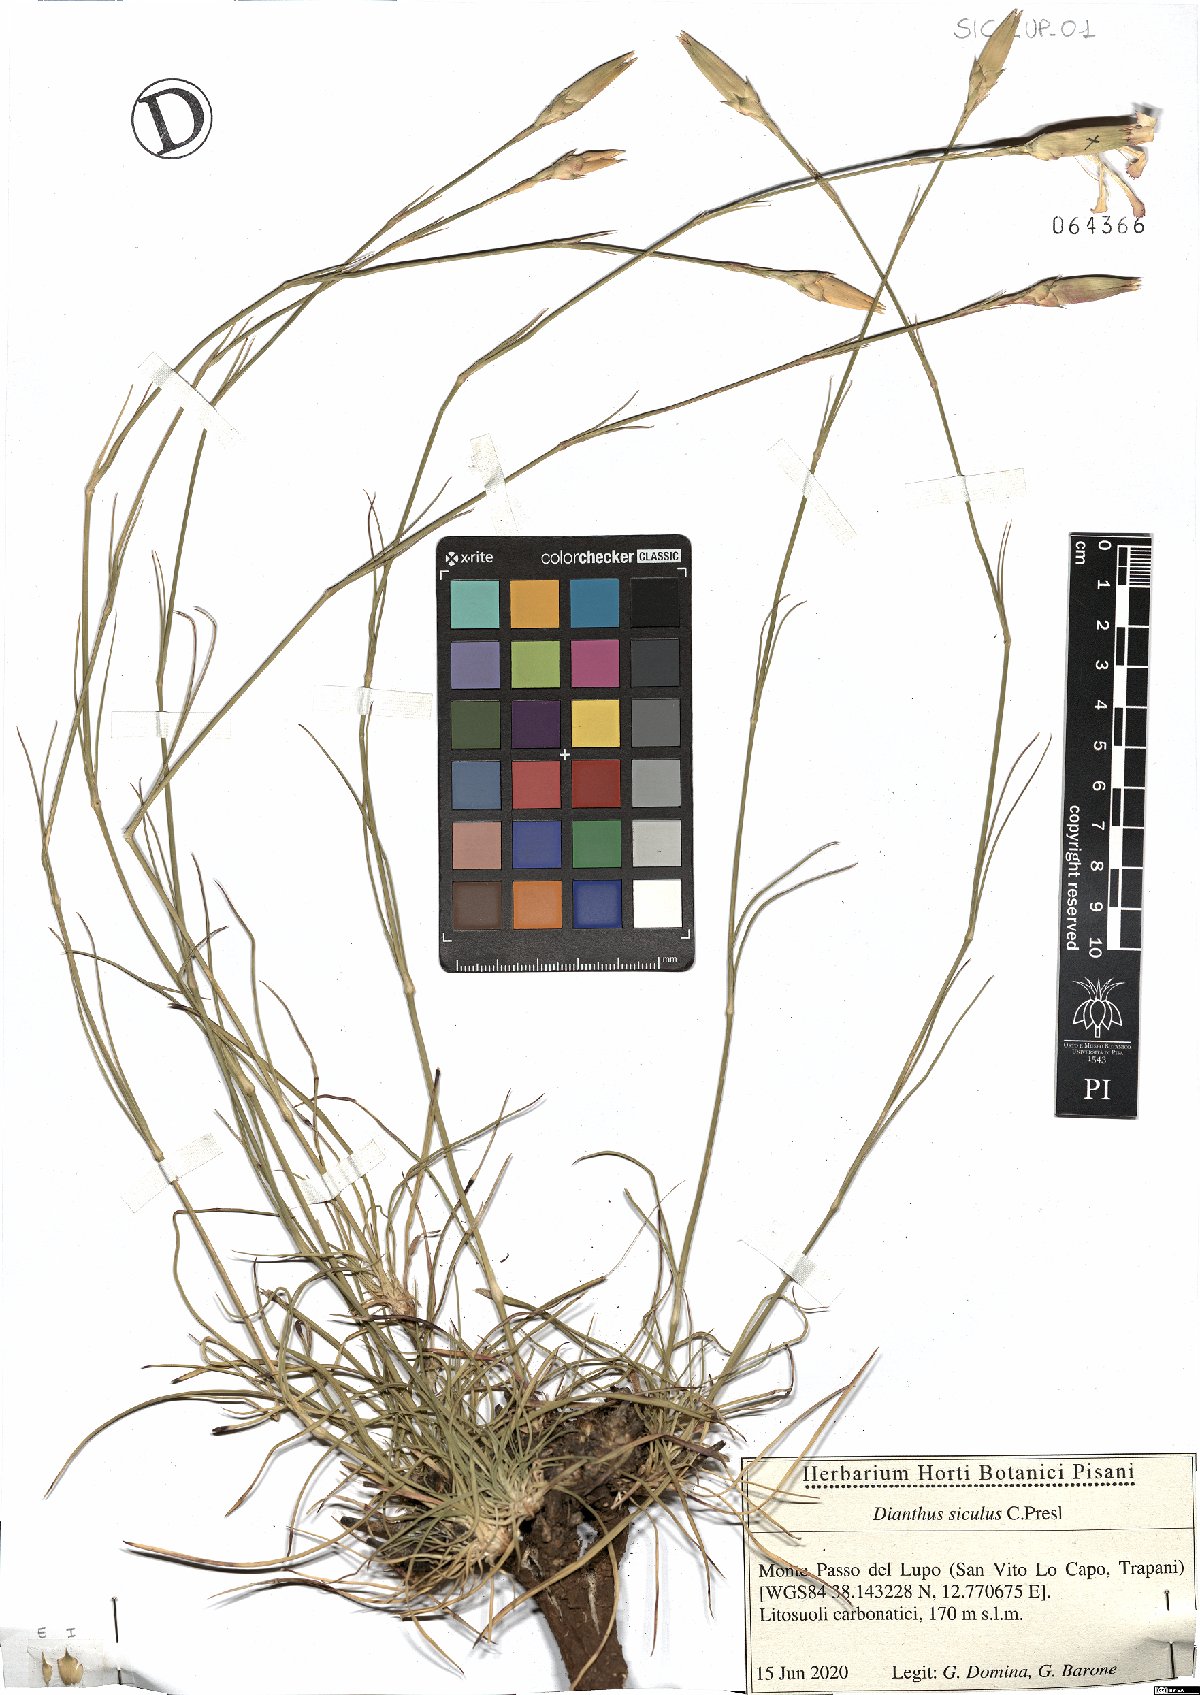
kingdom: Plantae
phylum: Tracheophyta
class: Magnoliopsida
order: Caryophyllales
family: Caryophyllaceae
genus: Dianthus
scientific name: Dianthus siculus
